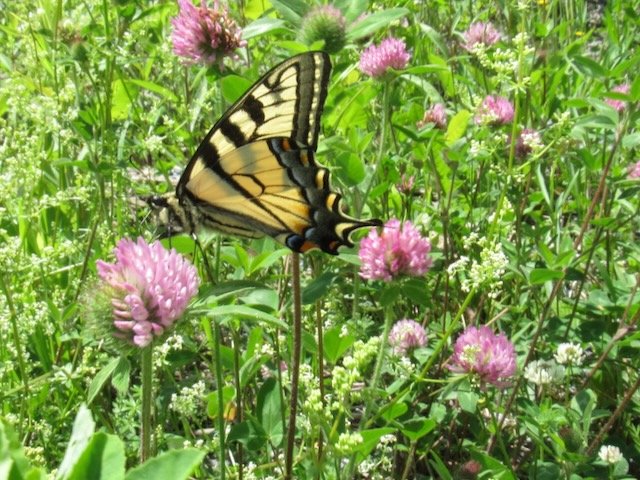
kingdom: Animalia
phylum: Arthropoda
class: Insecta
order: Lepidoptera
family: Papilionidae
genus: Pterourus
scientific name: Pterourus canadensis
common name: Canadian Tiger Swallowtail
